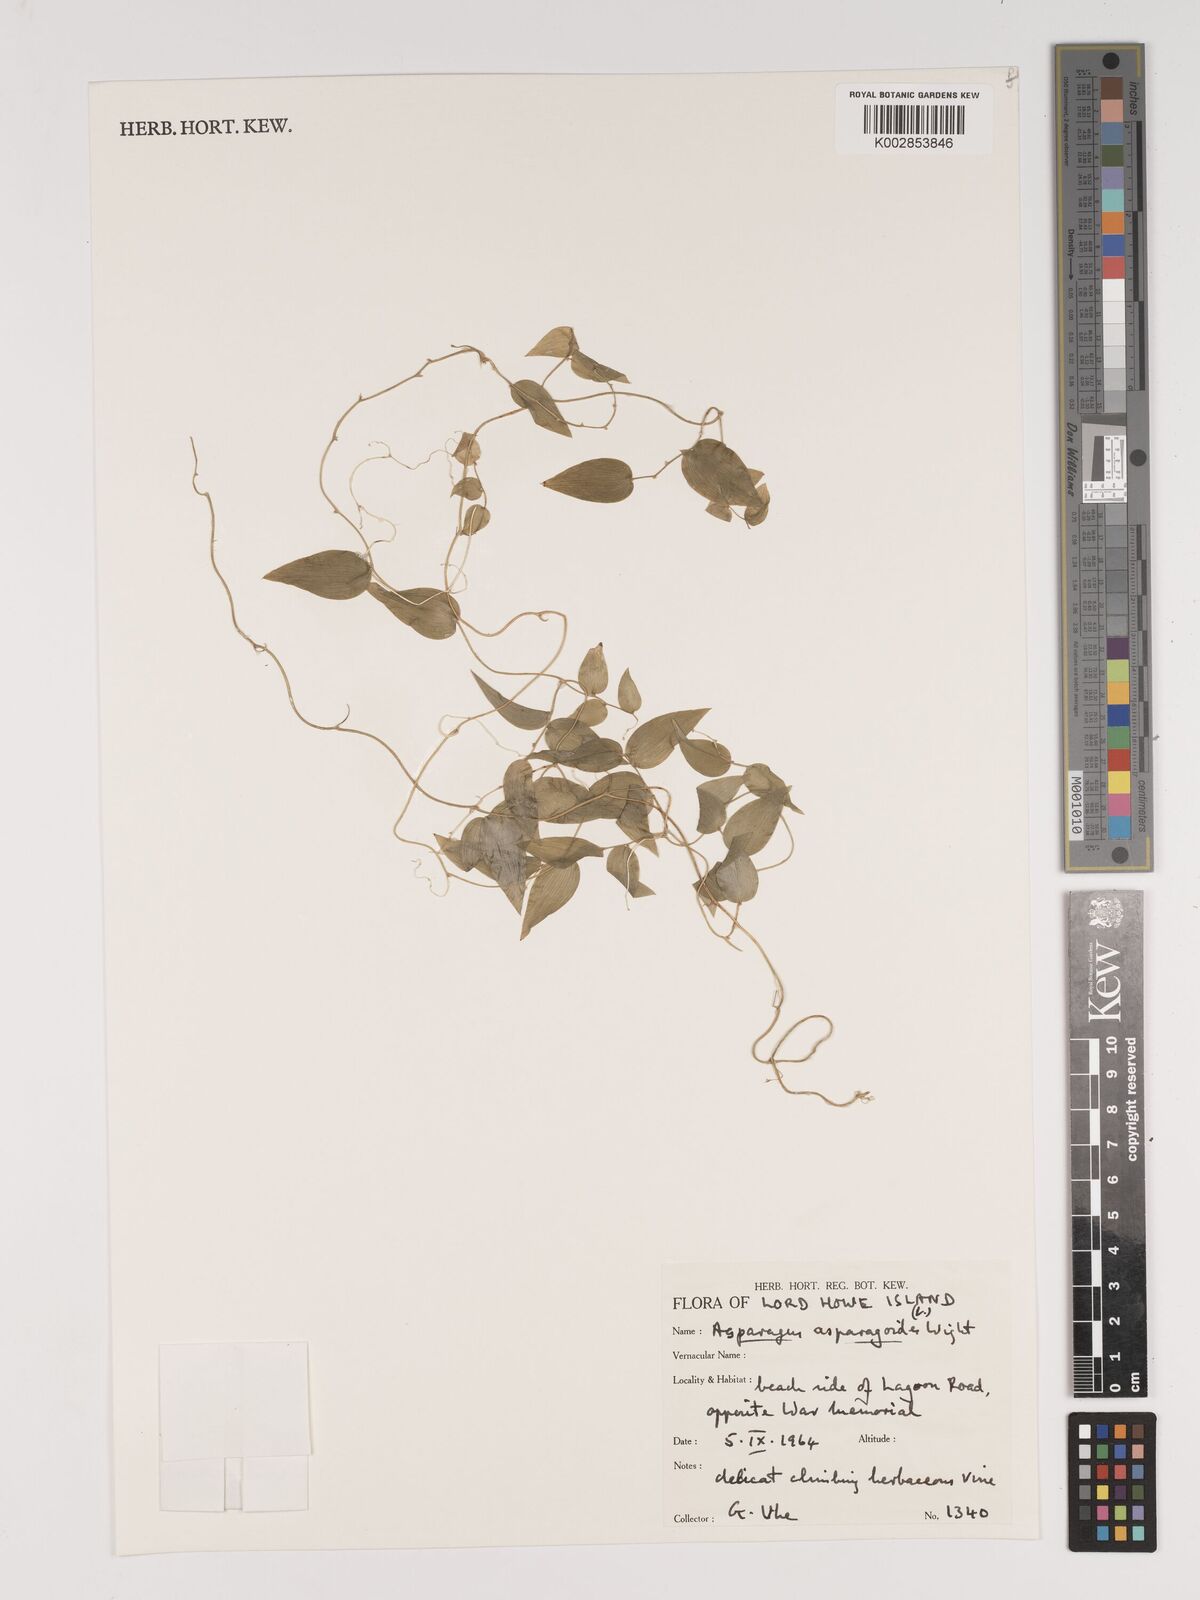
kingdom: Plantae
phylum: Tracheophyta
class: Liliopsida
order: Asparagales
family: Asparagaceae
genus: Asparagus
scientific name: Asparagus asparagoides
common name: African asparagus fern
